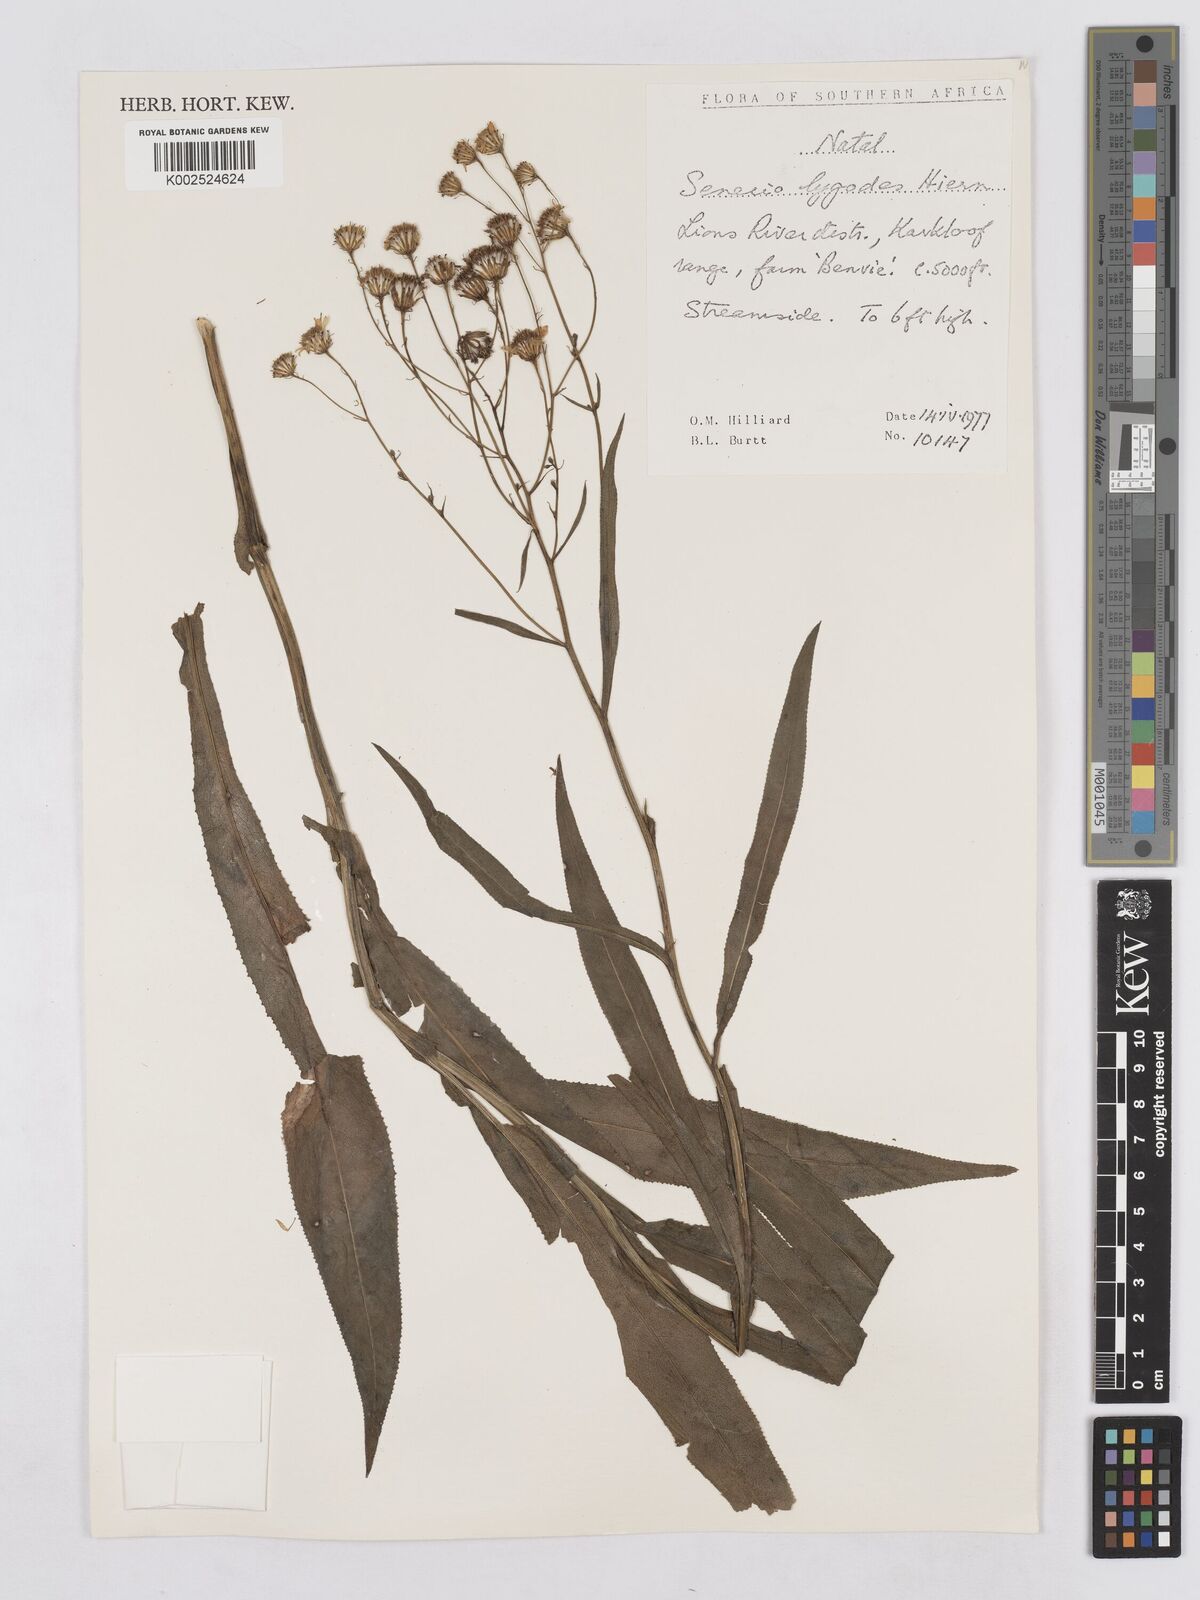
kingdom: Plantae
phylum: Tracheophyta
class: Magnoliopsida
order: Asterales
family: Asteraceae
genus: Senecio
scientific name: Senecio inornatus
